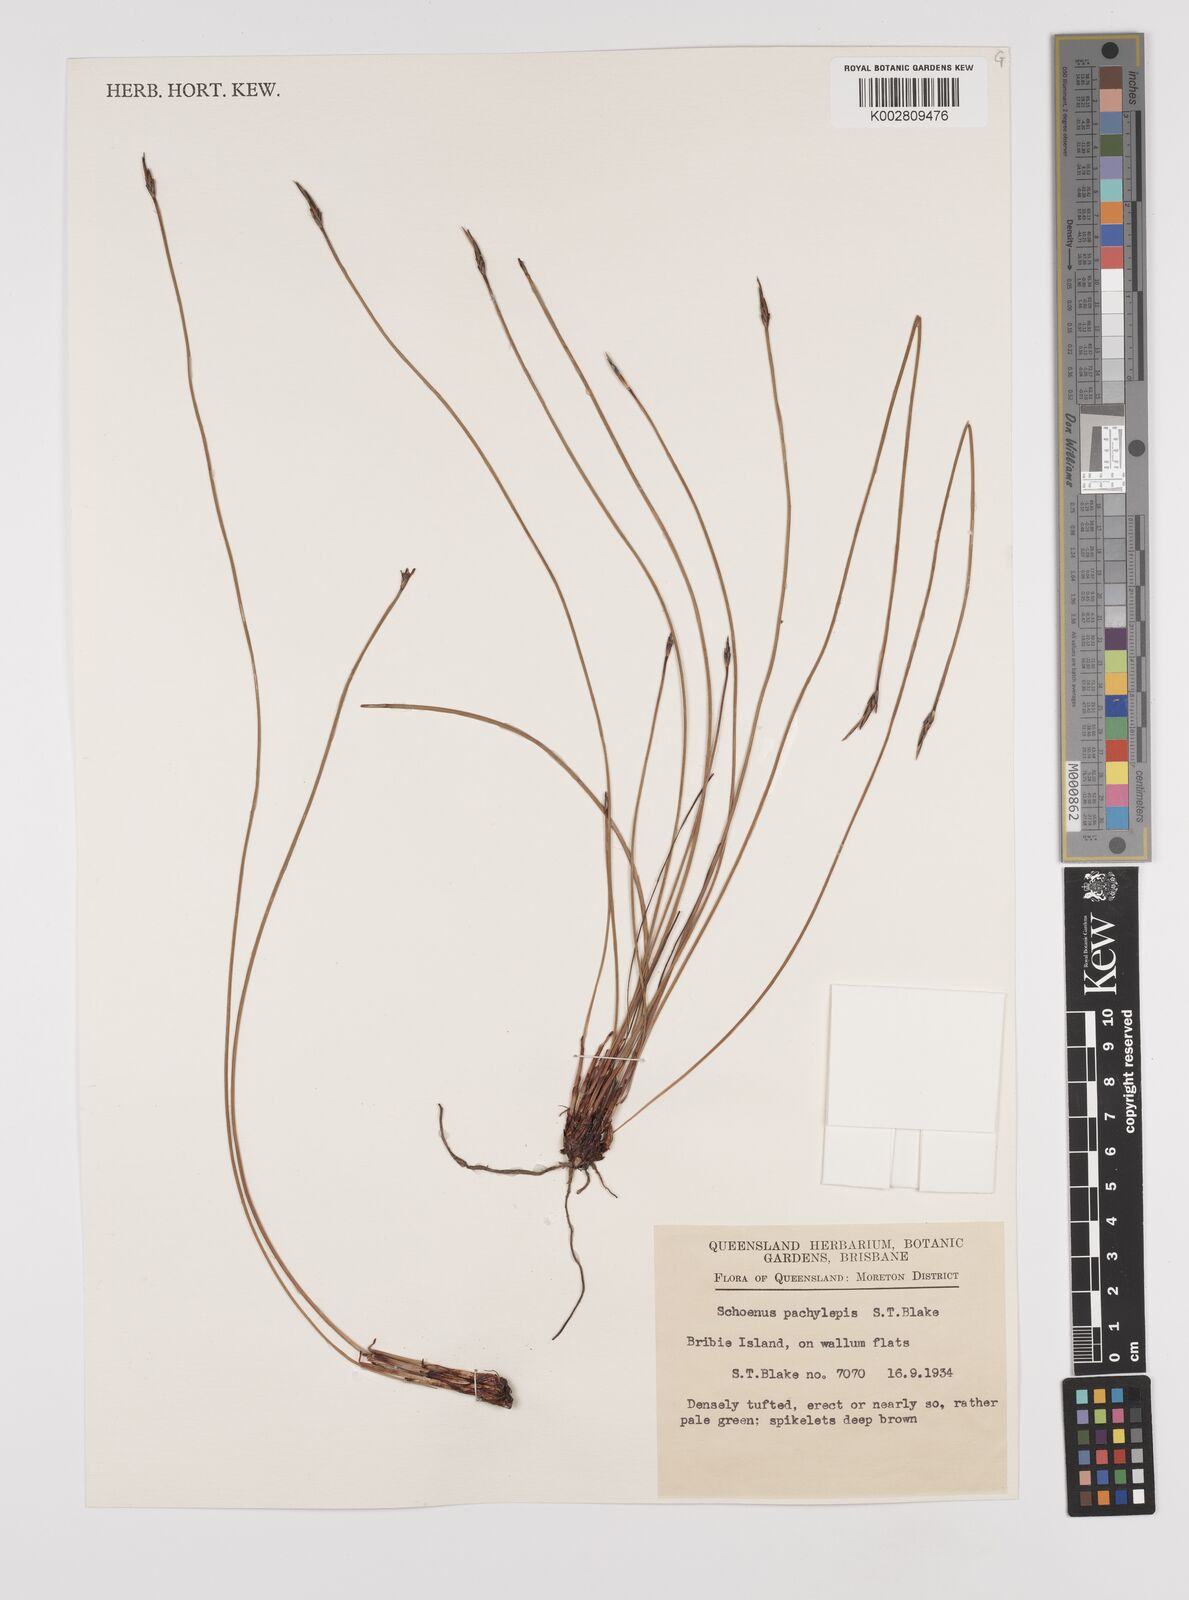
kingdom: Plantae
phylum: Tracheophyta
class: Liliopsida
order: Poales
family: Cyperaceae
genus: Schoenus
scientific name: Schoenus lepidosperma
